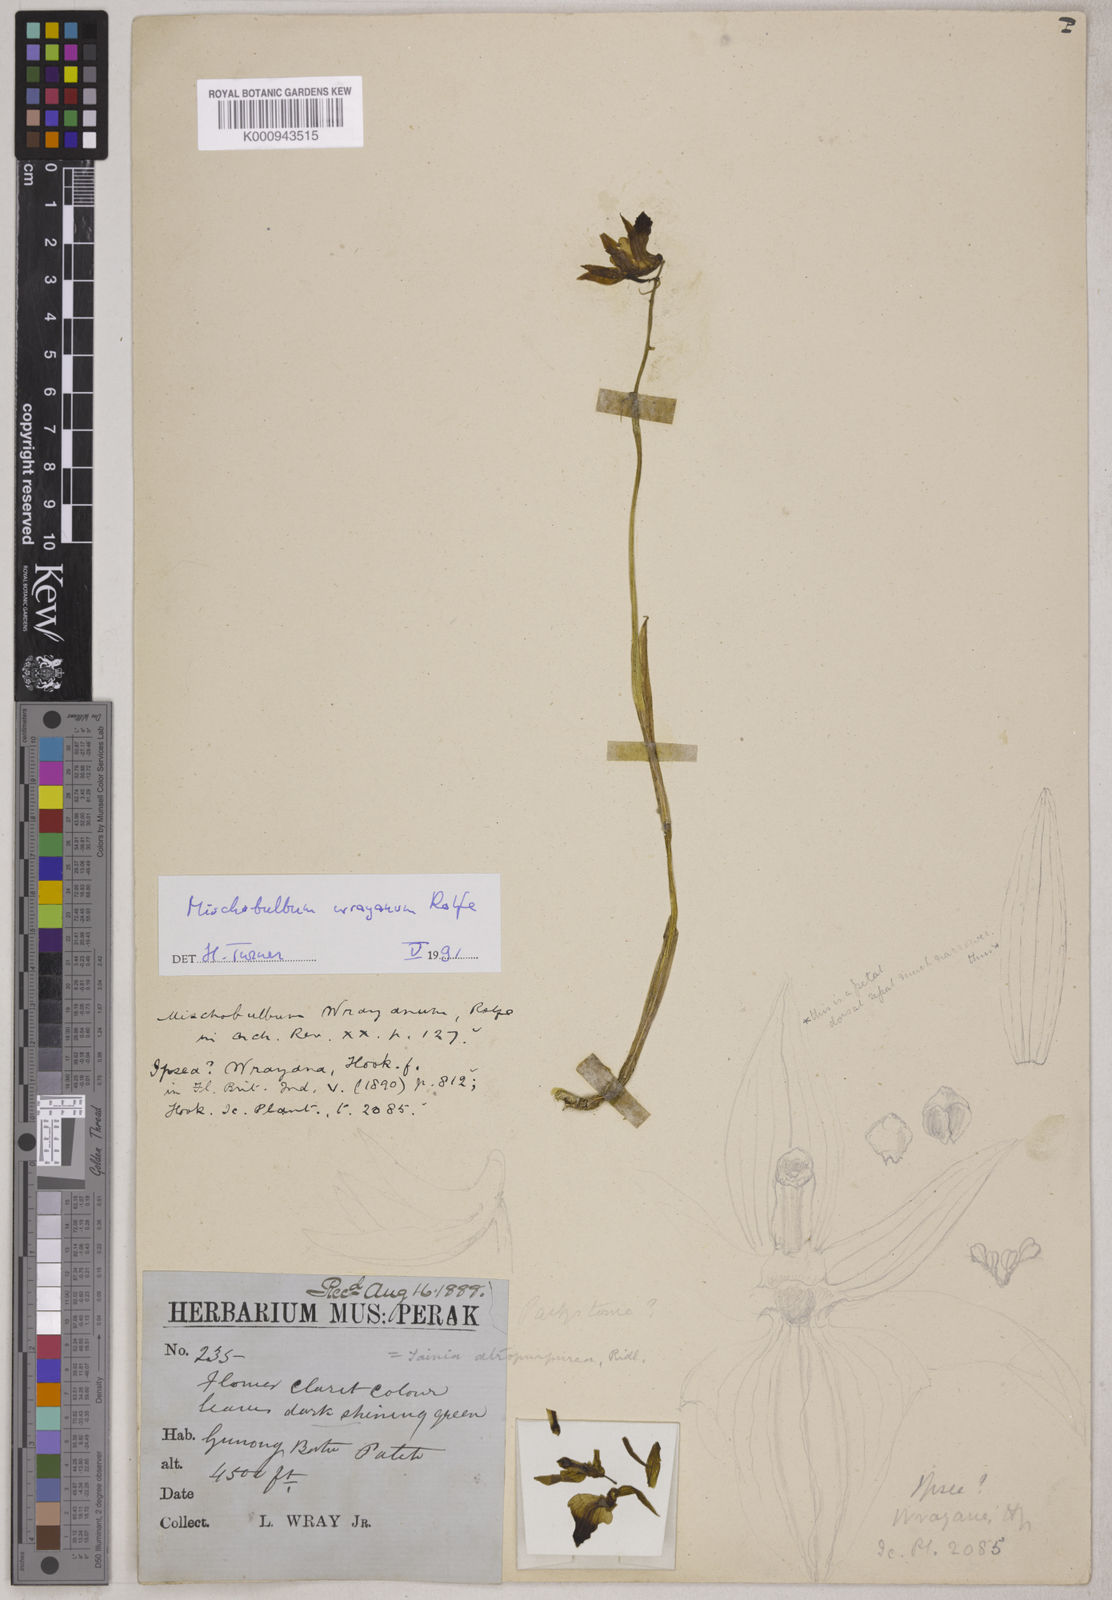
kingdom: Plantae
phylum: Tracheophyta
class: Liliopsida
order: Asparagales
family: Orchidaceae
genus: Tainia
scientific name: Tainia
